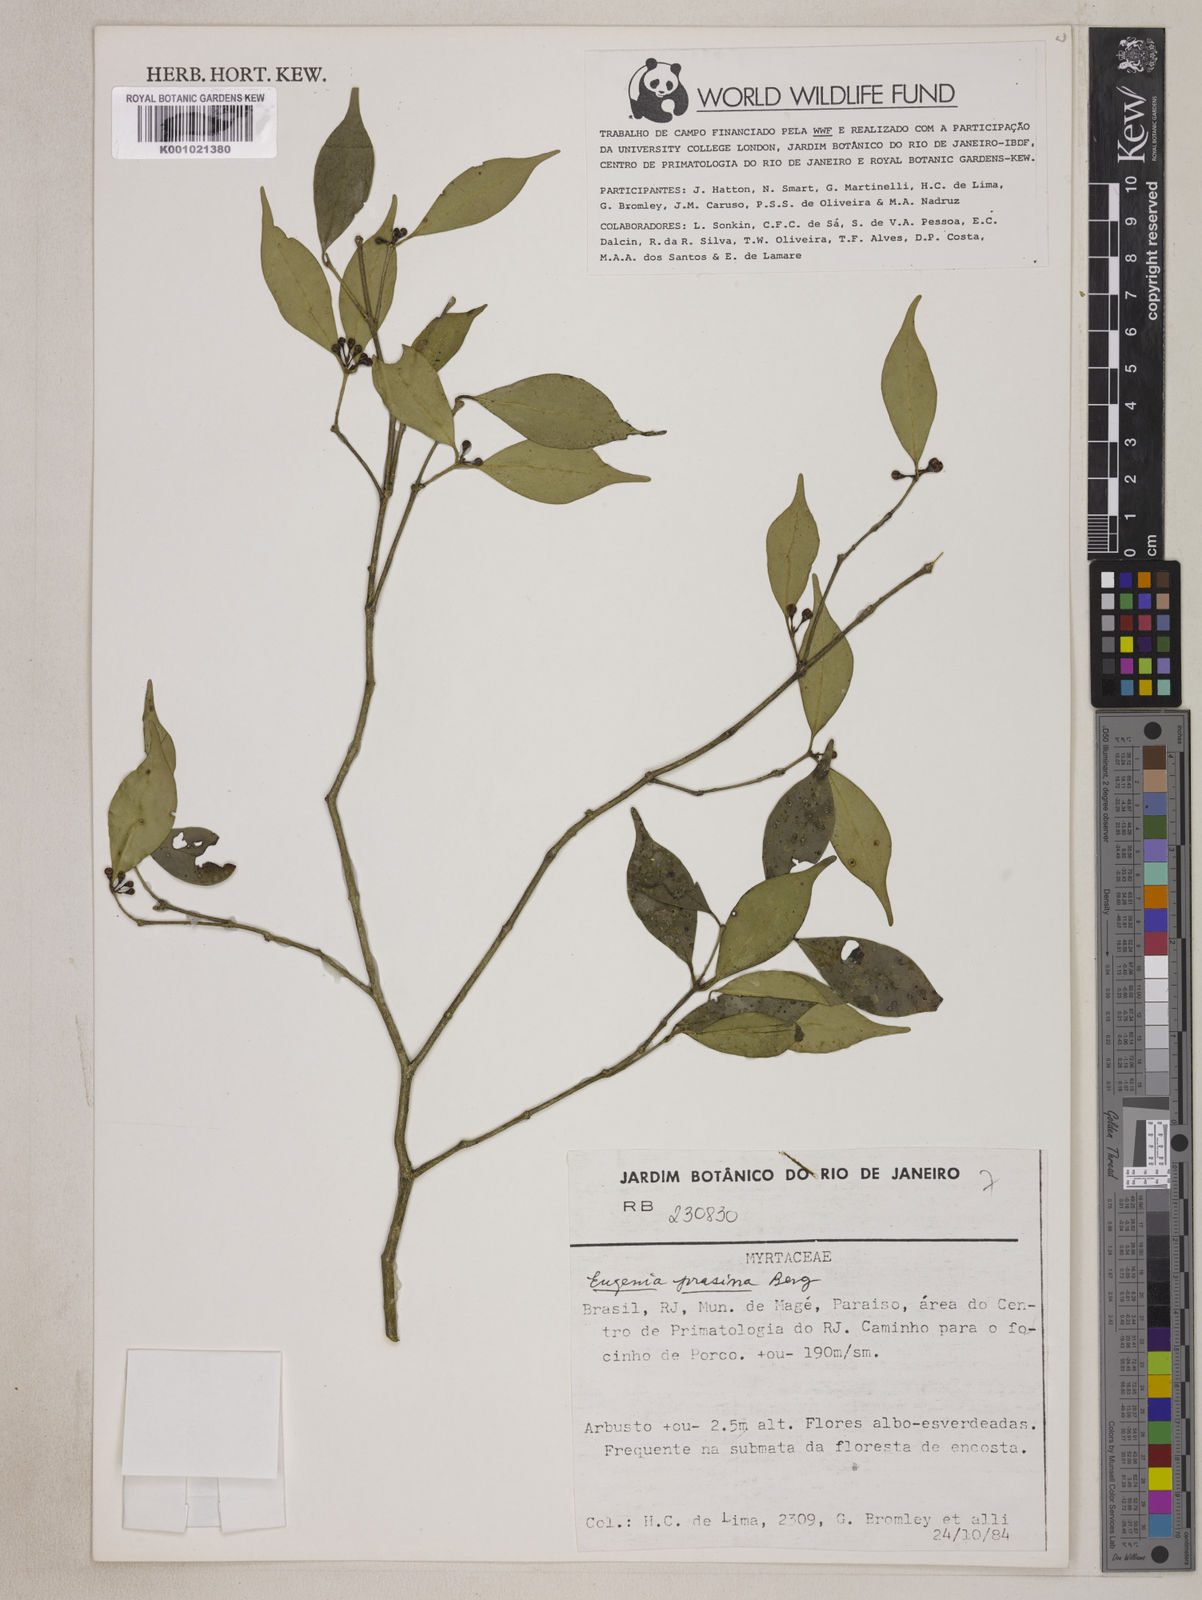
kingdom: Plantae
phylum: Tracheophyta
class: Magnoliopsida
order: Myrtales
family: Myrtaceae
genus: Eugenia
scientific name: Eugenia prasina
